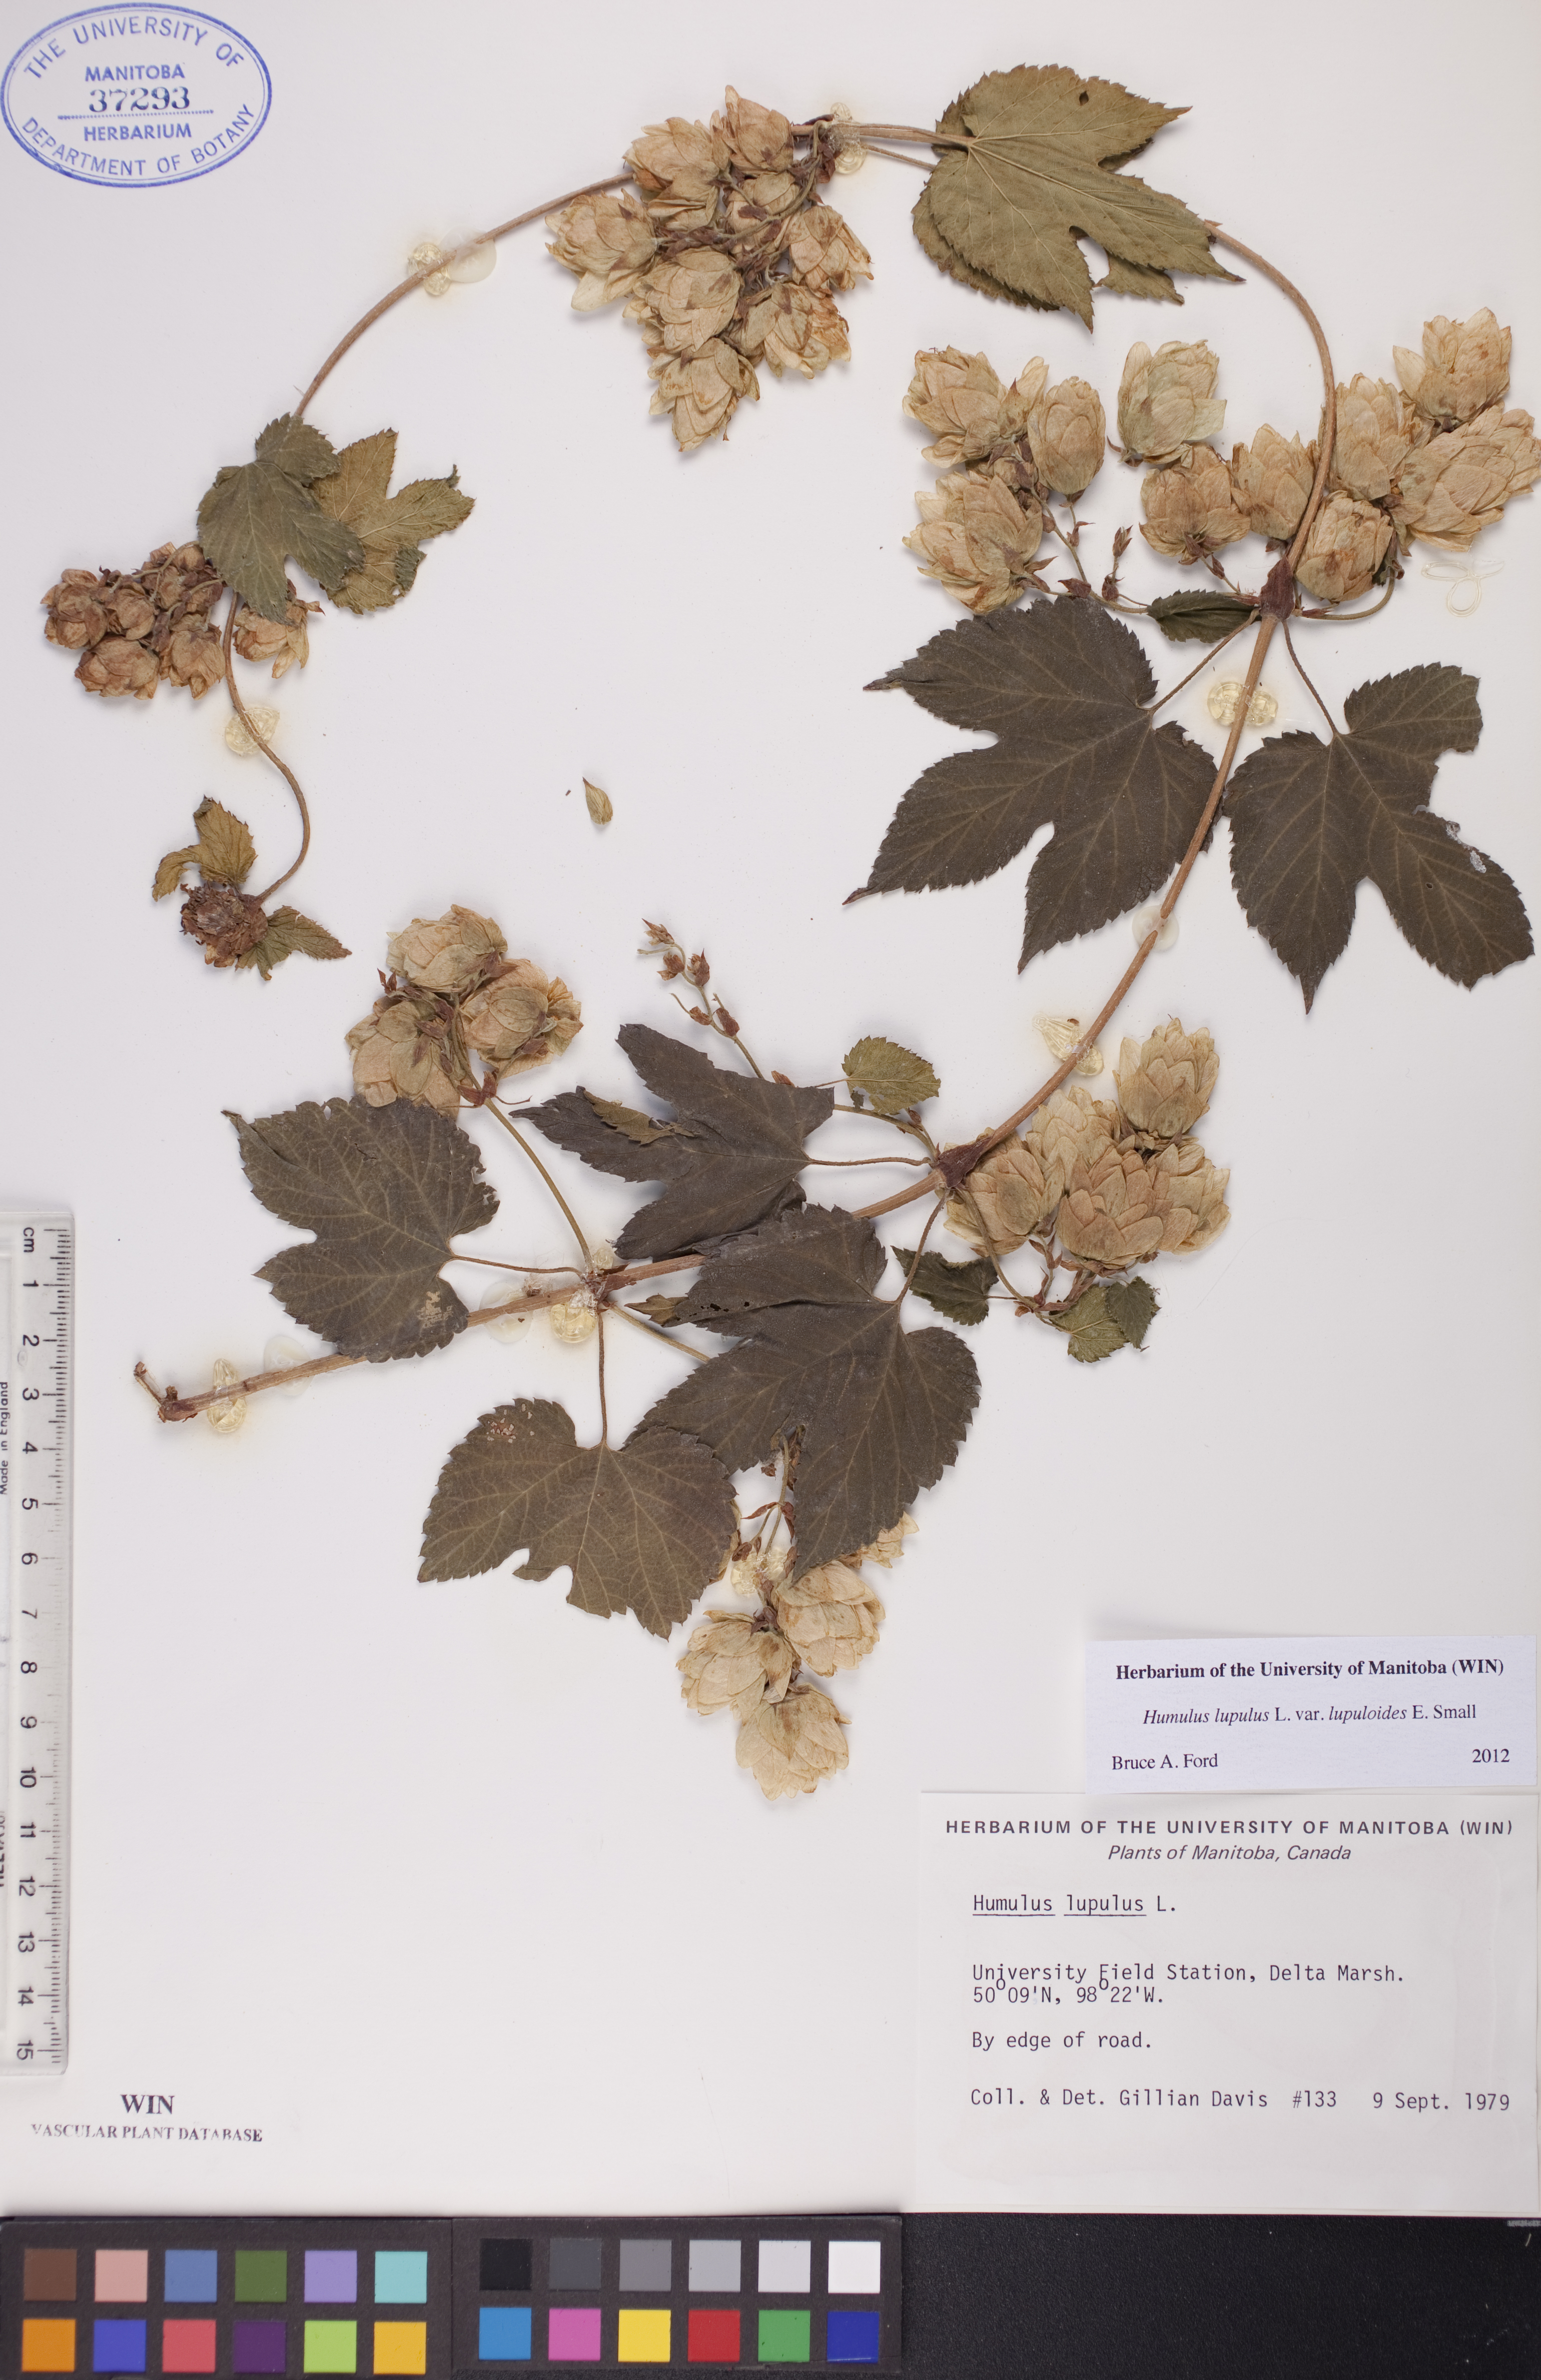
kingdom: Plantae
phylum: Tracheophyta
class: Magnoliopsida
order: Rosales
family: Cannabaceae
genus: Humulus
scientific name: Humulus americanus
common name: American hops
